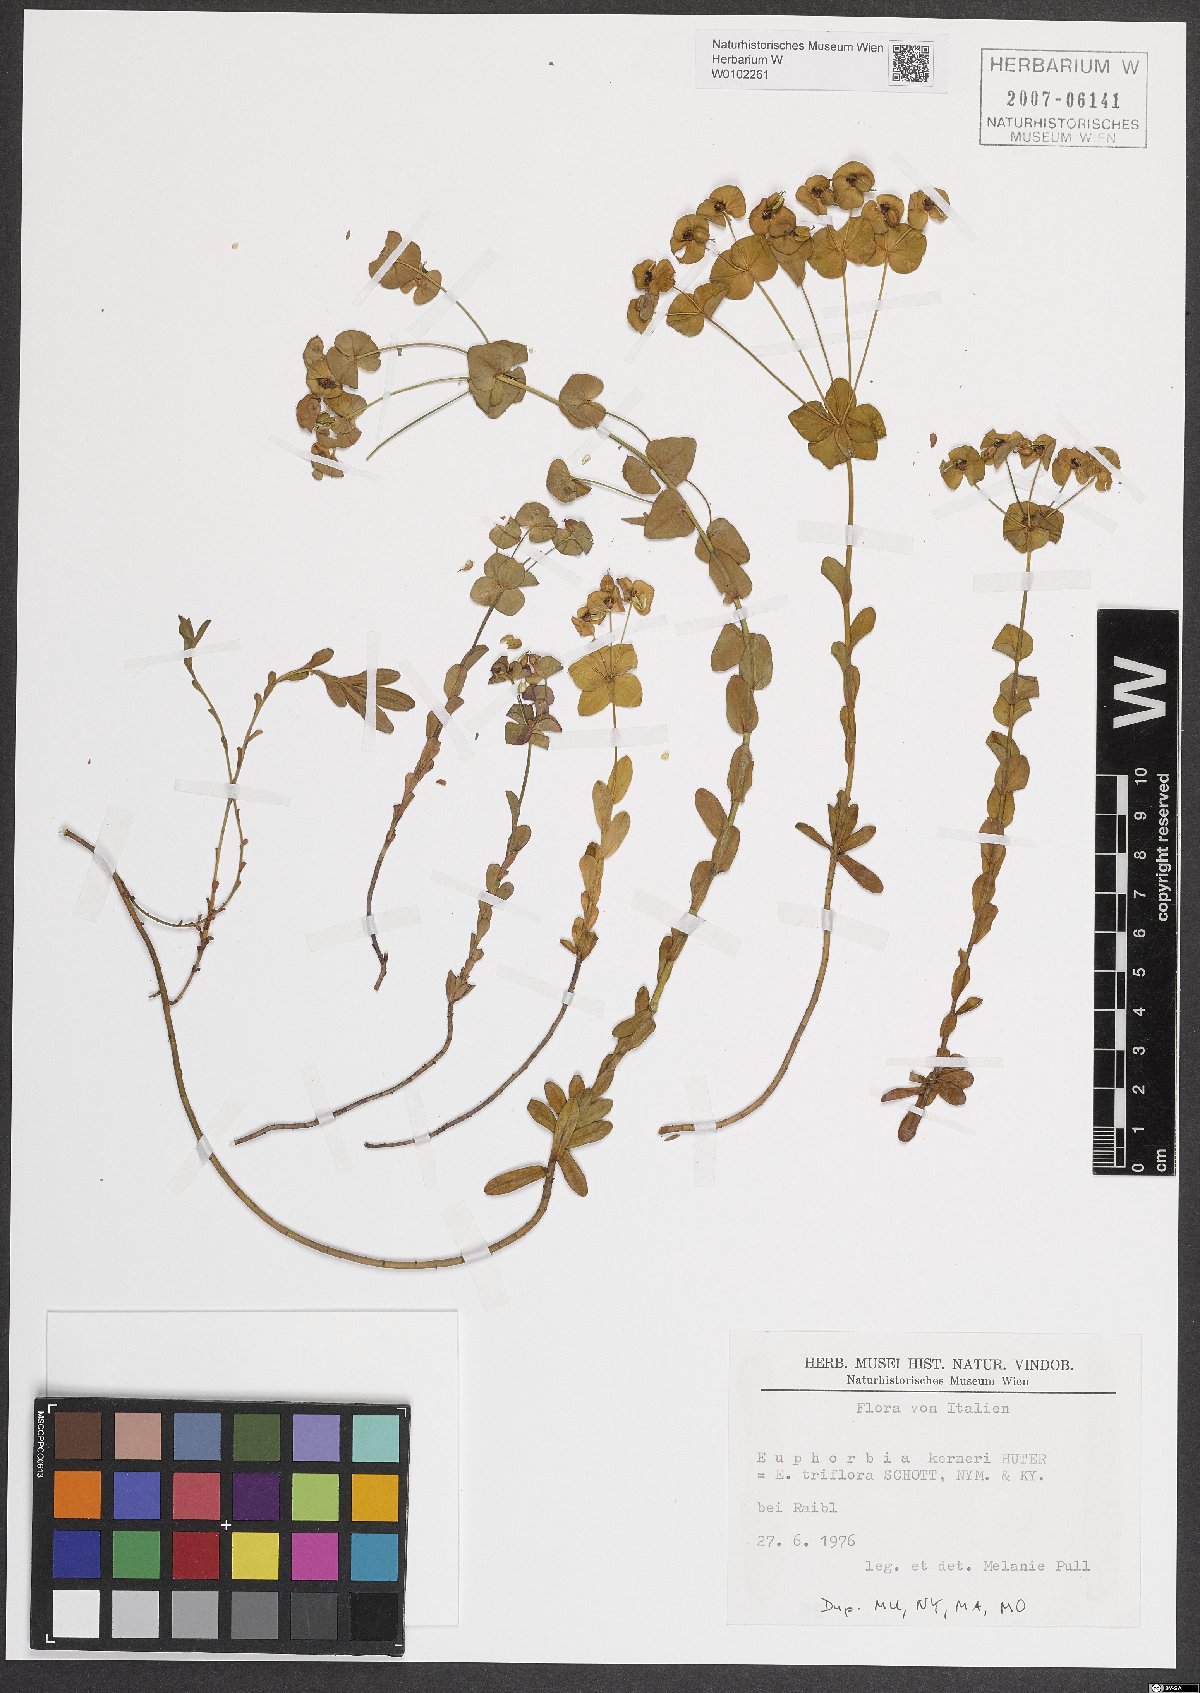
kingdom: Plantae
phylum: Tracheophyta
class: Magnoliopsida
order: Malpighiales
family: Euphorbiaceae
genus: Euphorbia
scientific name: Euphorbia kerneri
